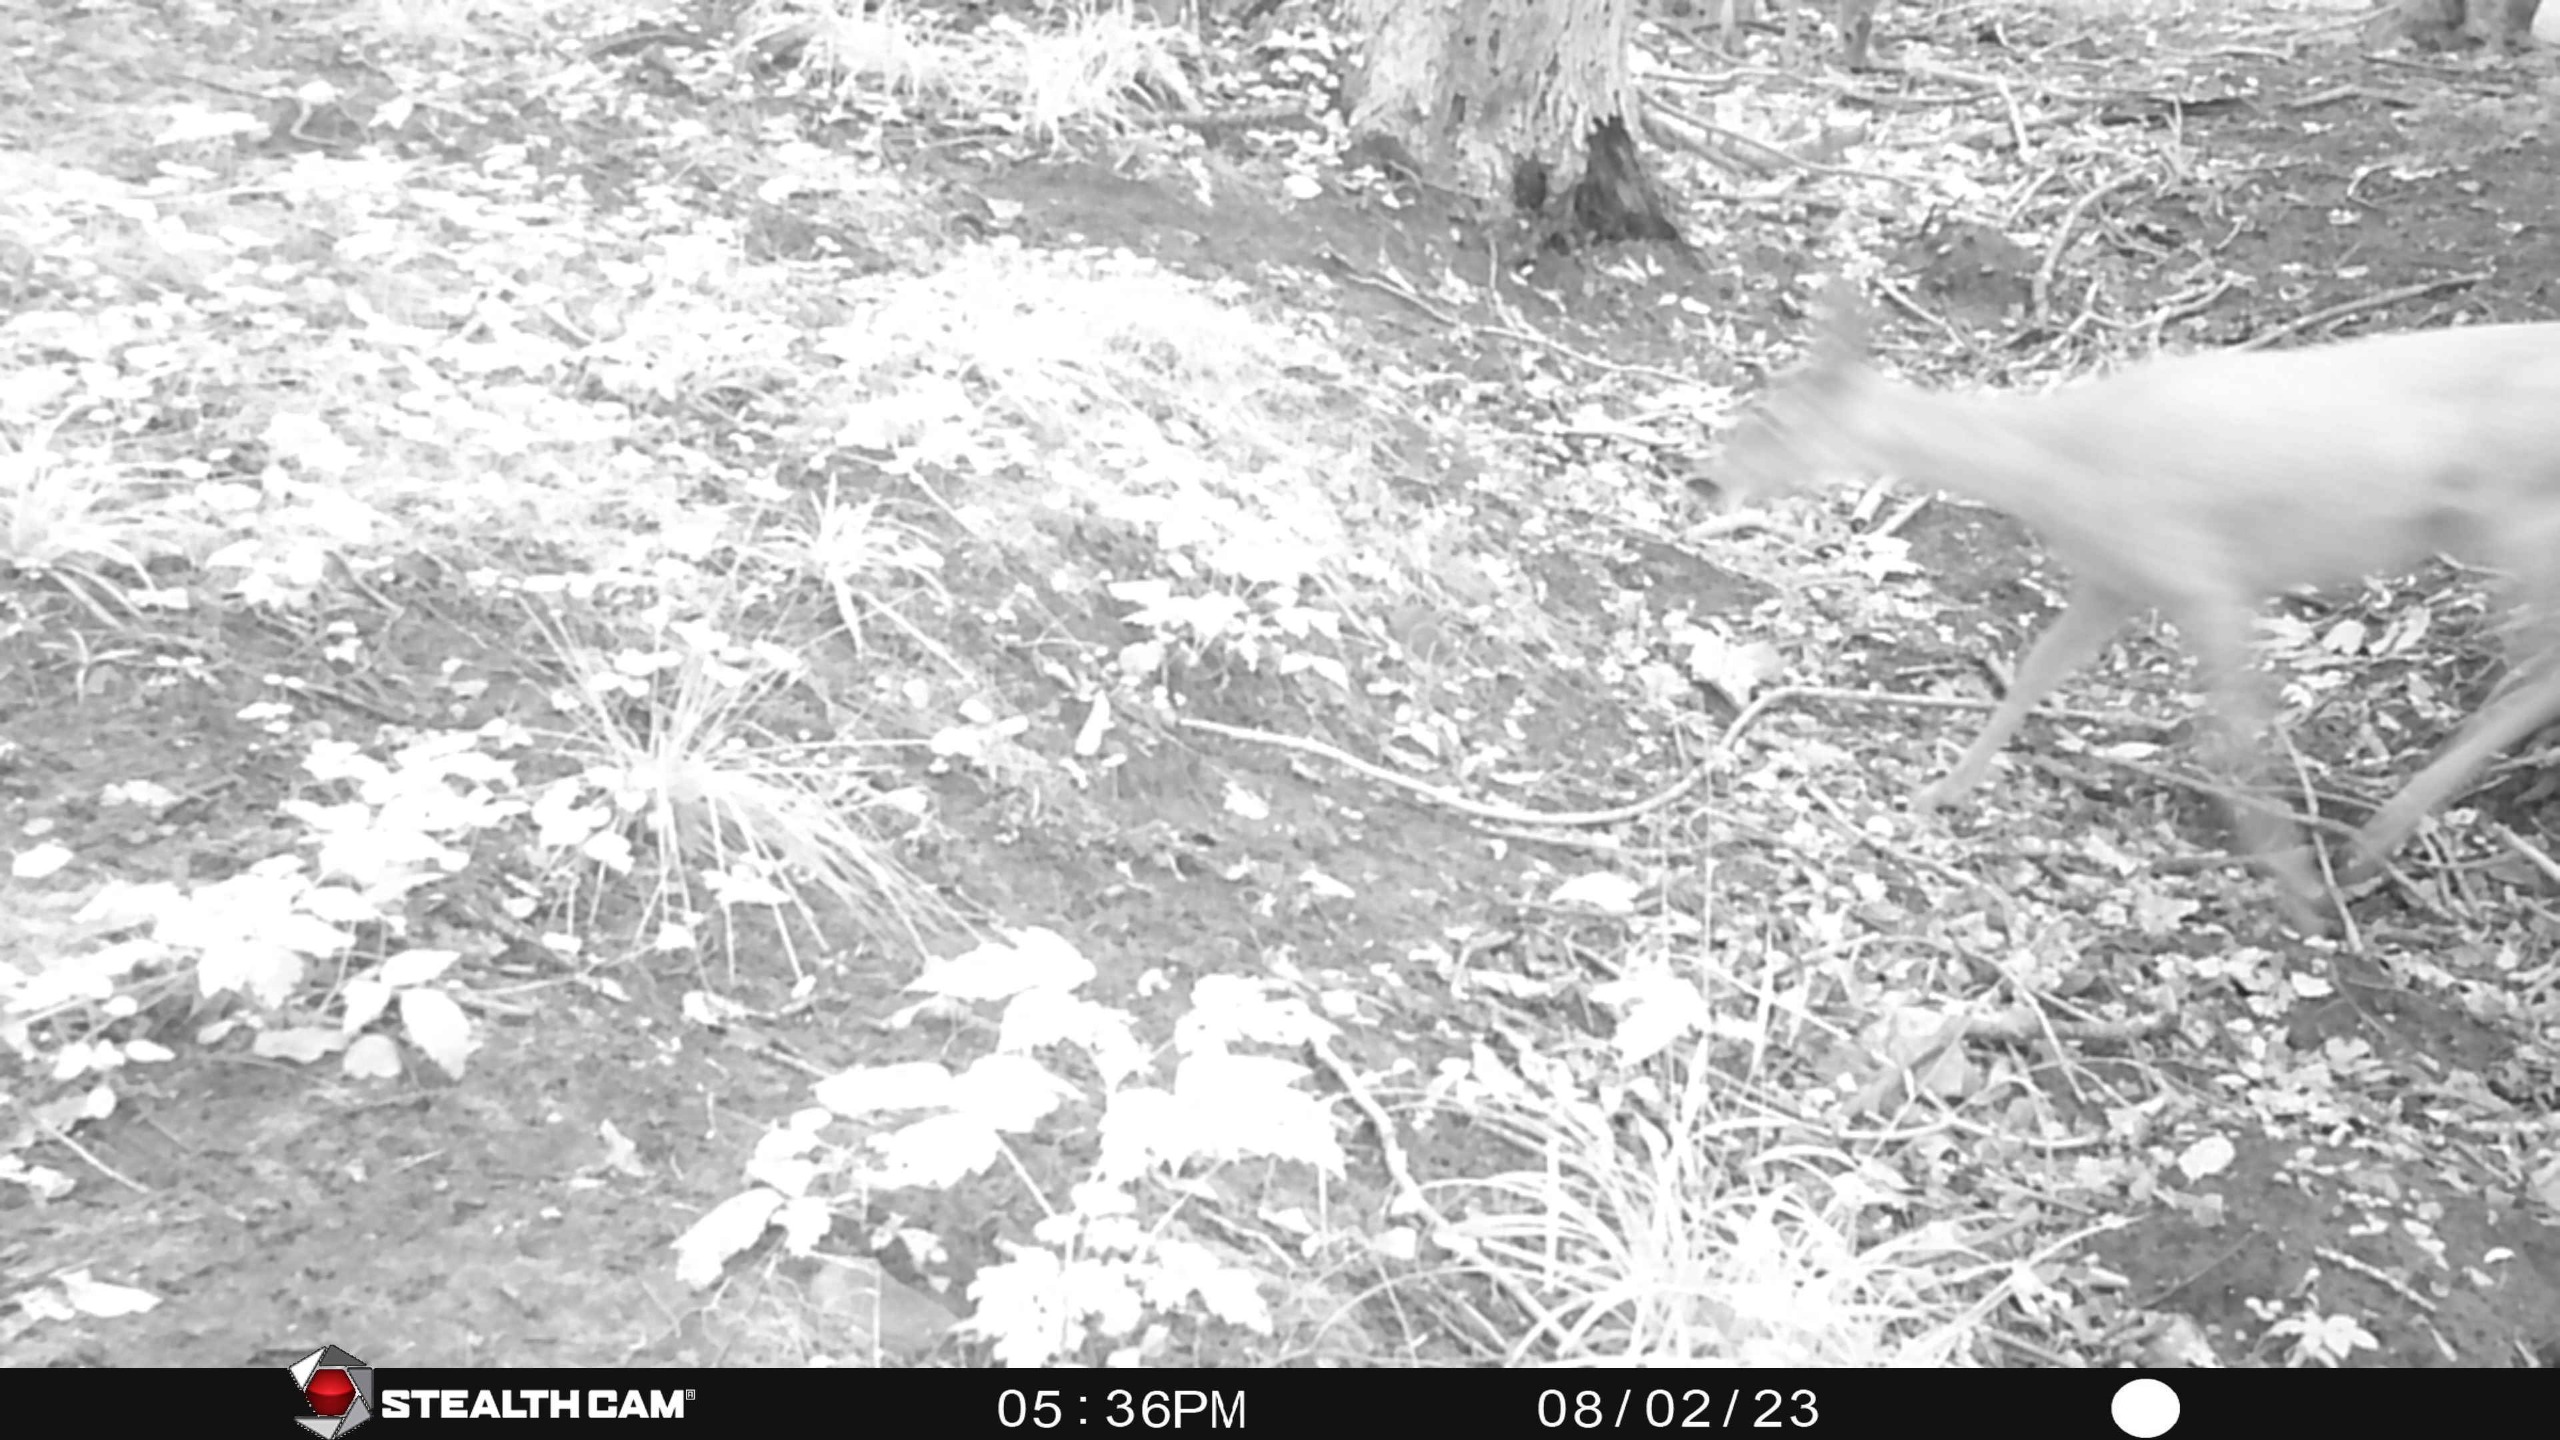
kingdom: Animalia
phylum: Chordata
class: Mammalia
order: Artiodactyla
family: Cervidae
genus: Capreolus
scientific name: Capreolus capreolus
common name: Rådyr
